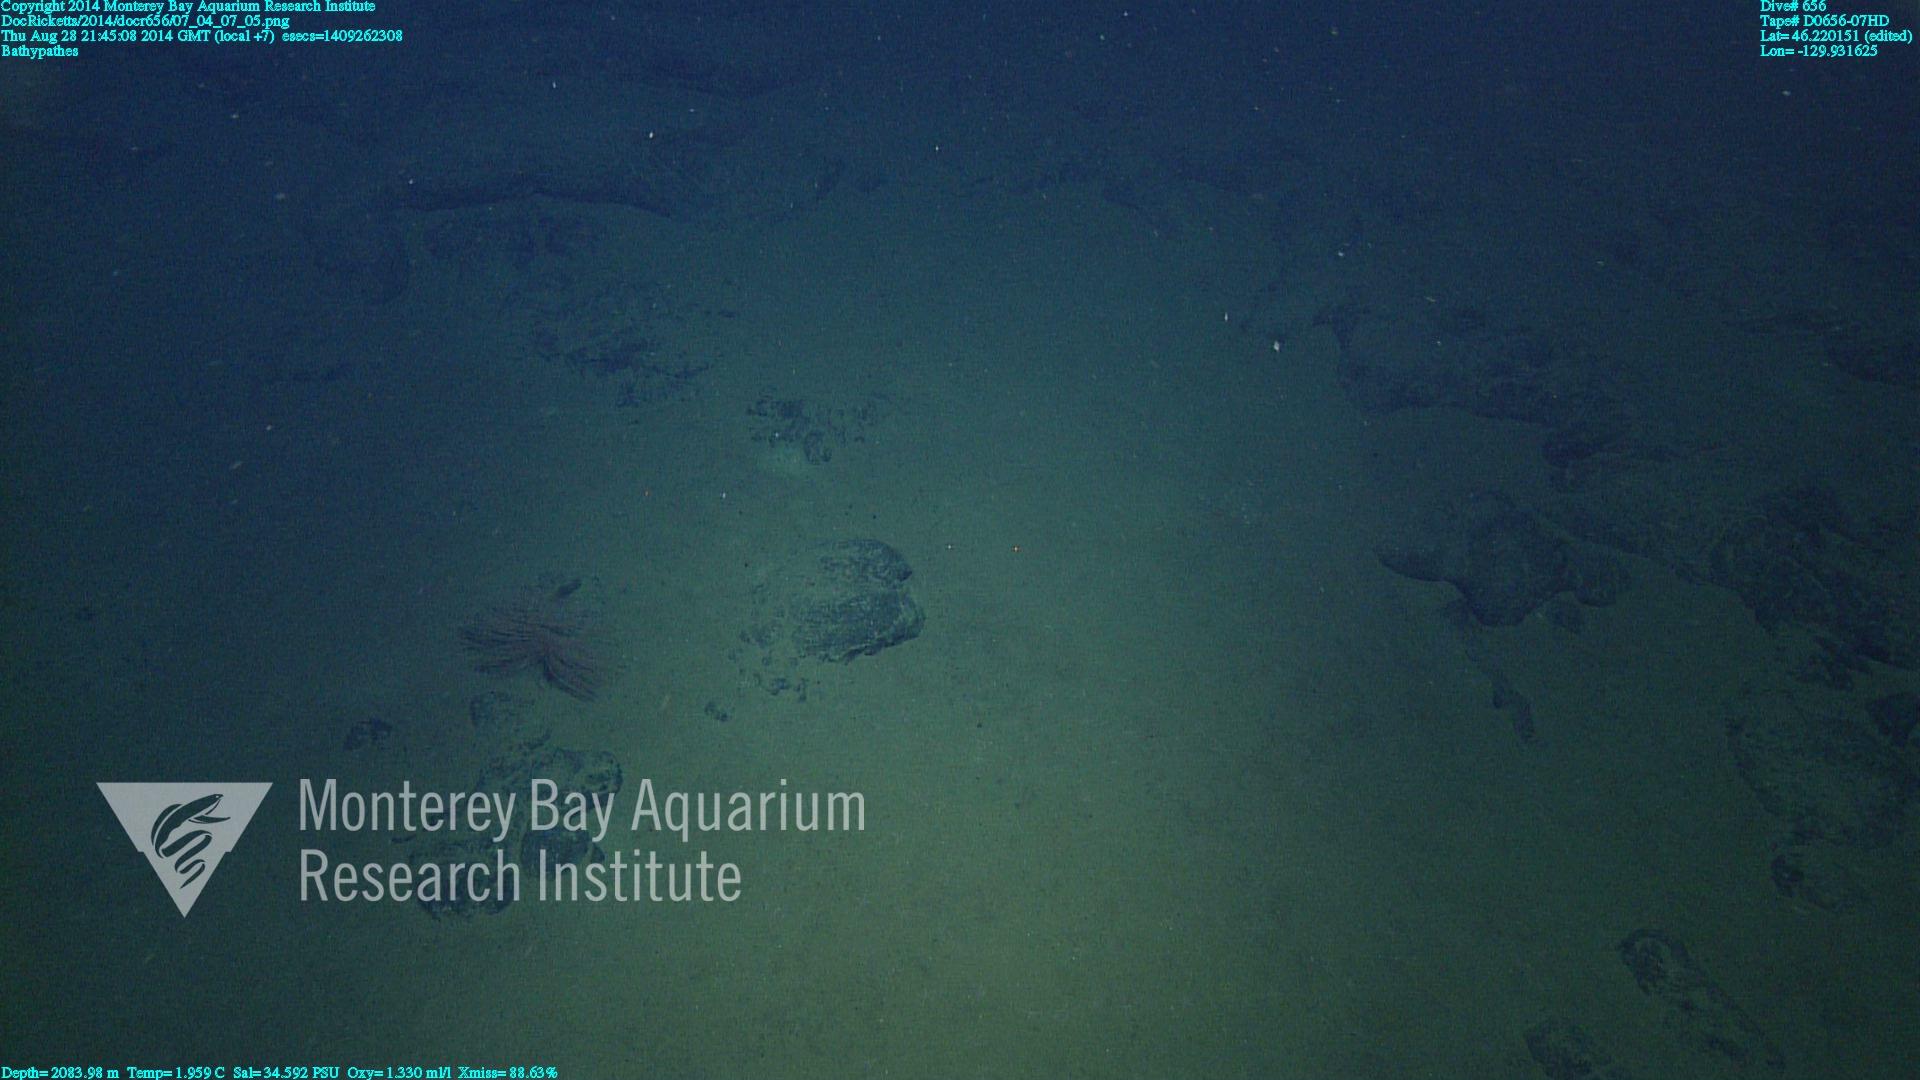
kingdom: Animalia
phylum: Cnidaria
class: Anthozoa
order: Antipatharia
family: Schizopathidae
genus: Bathypathes
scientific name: Bathypathes
